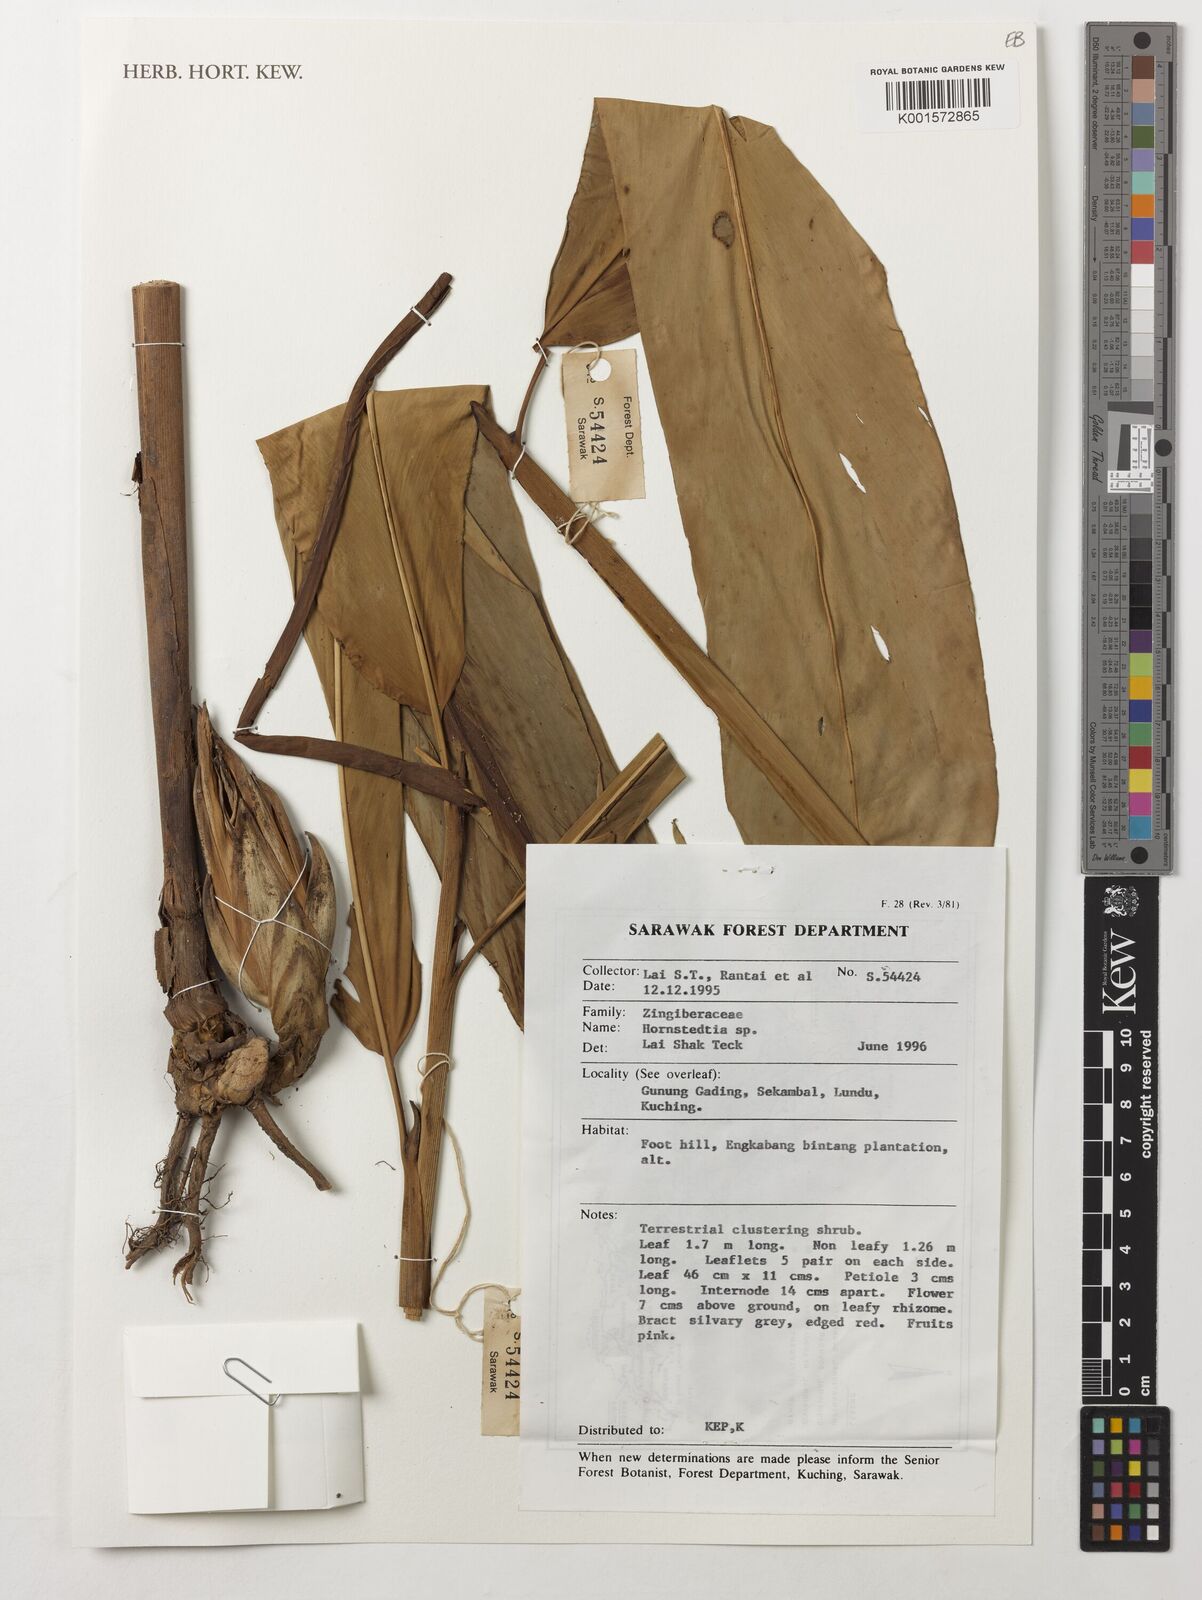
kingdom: Plantae
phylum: Tracheophyta
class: Liliopsida
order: Zingiberales
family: Zingiberaceae
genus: Hornstedtia
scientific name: Hornstedtia
